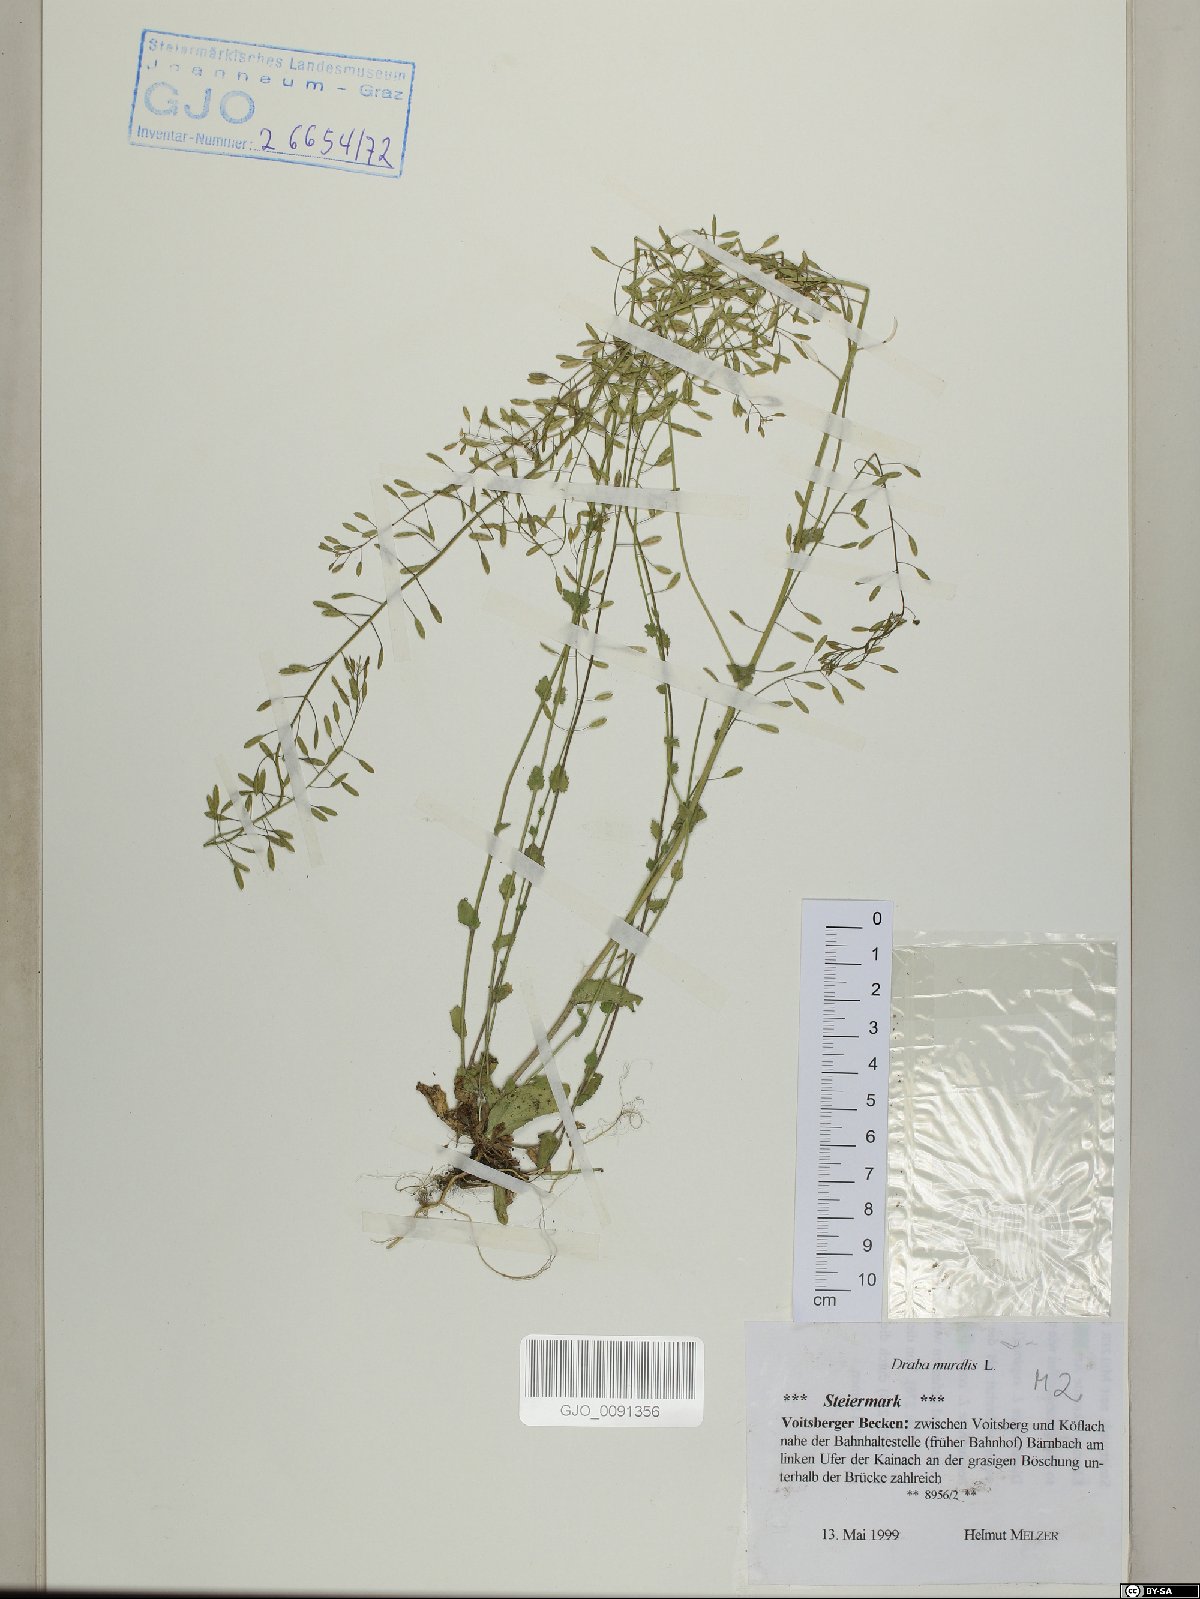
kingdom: Plantae
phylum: Tracheophyta
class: Magnoliopsida
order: Brassicales
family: Brassicaceae
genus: Drabella
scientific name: Drabella muralis
